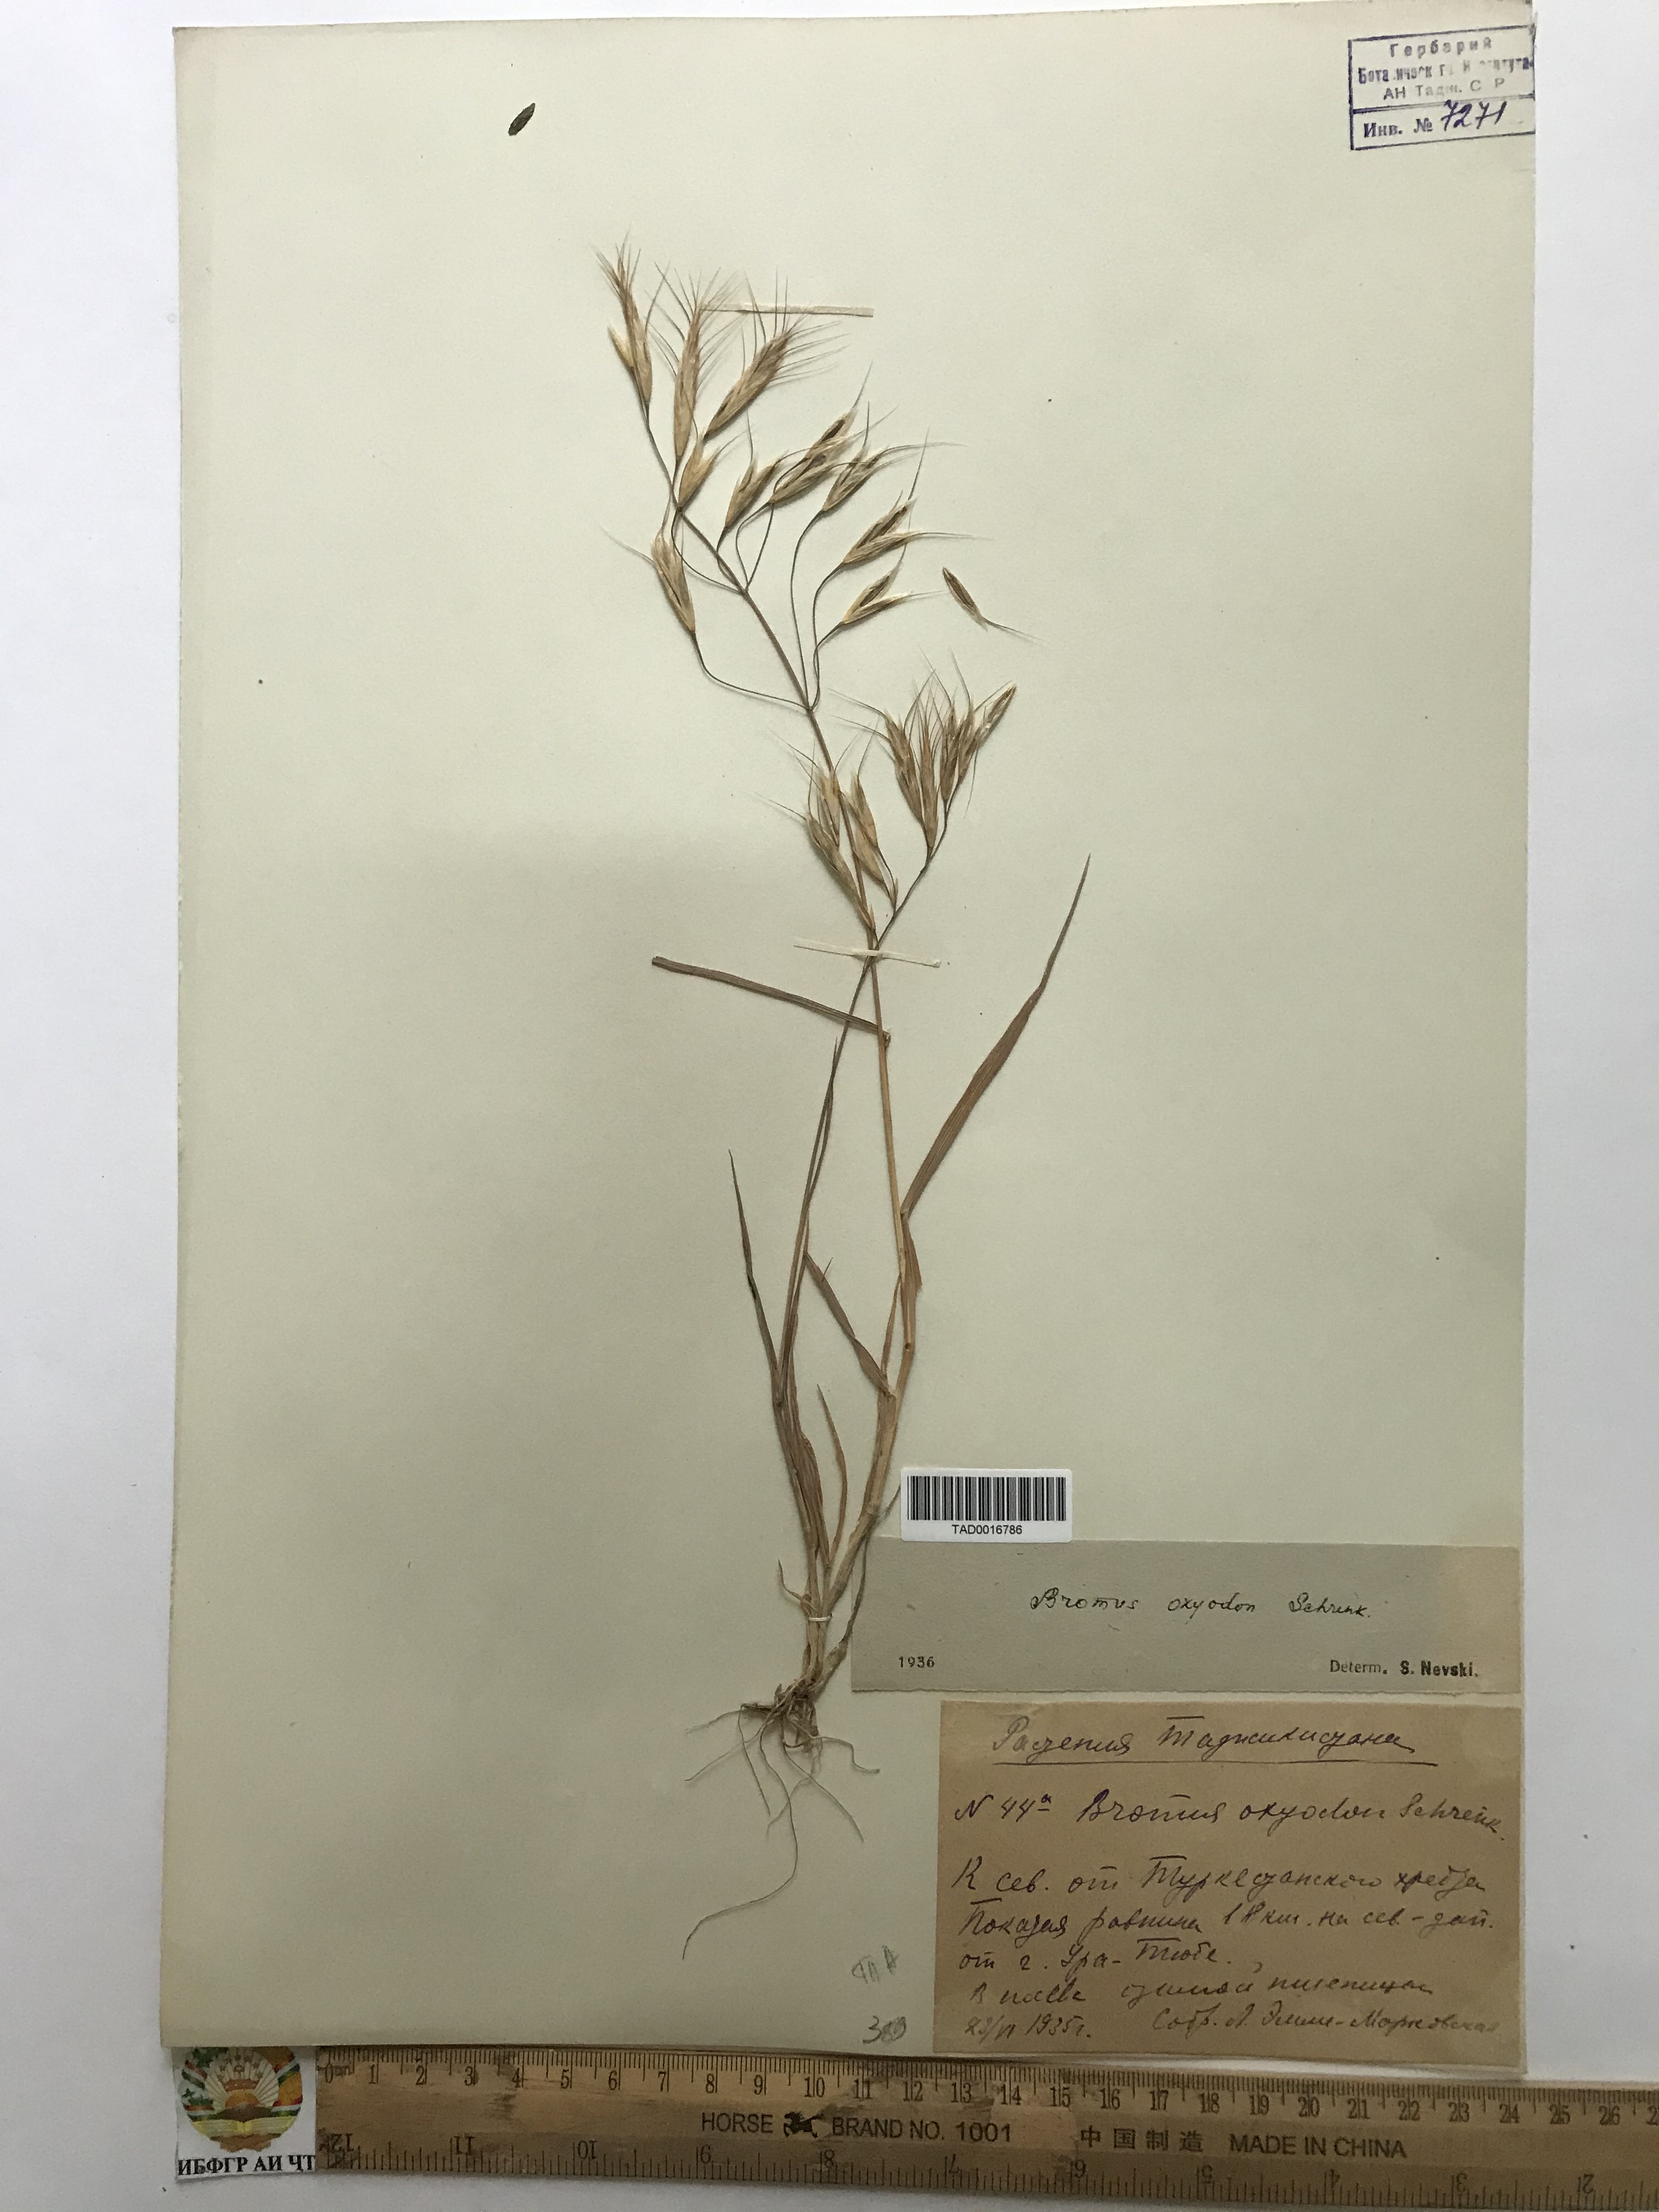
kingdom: Plantae
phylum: Tracheophyta
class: Liliopsida
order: Poales
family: Poaceae
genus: Bromus
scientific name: Bromus oxyodon
